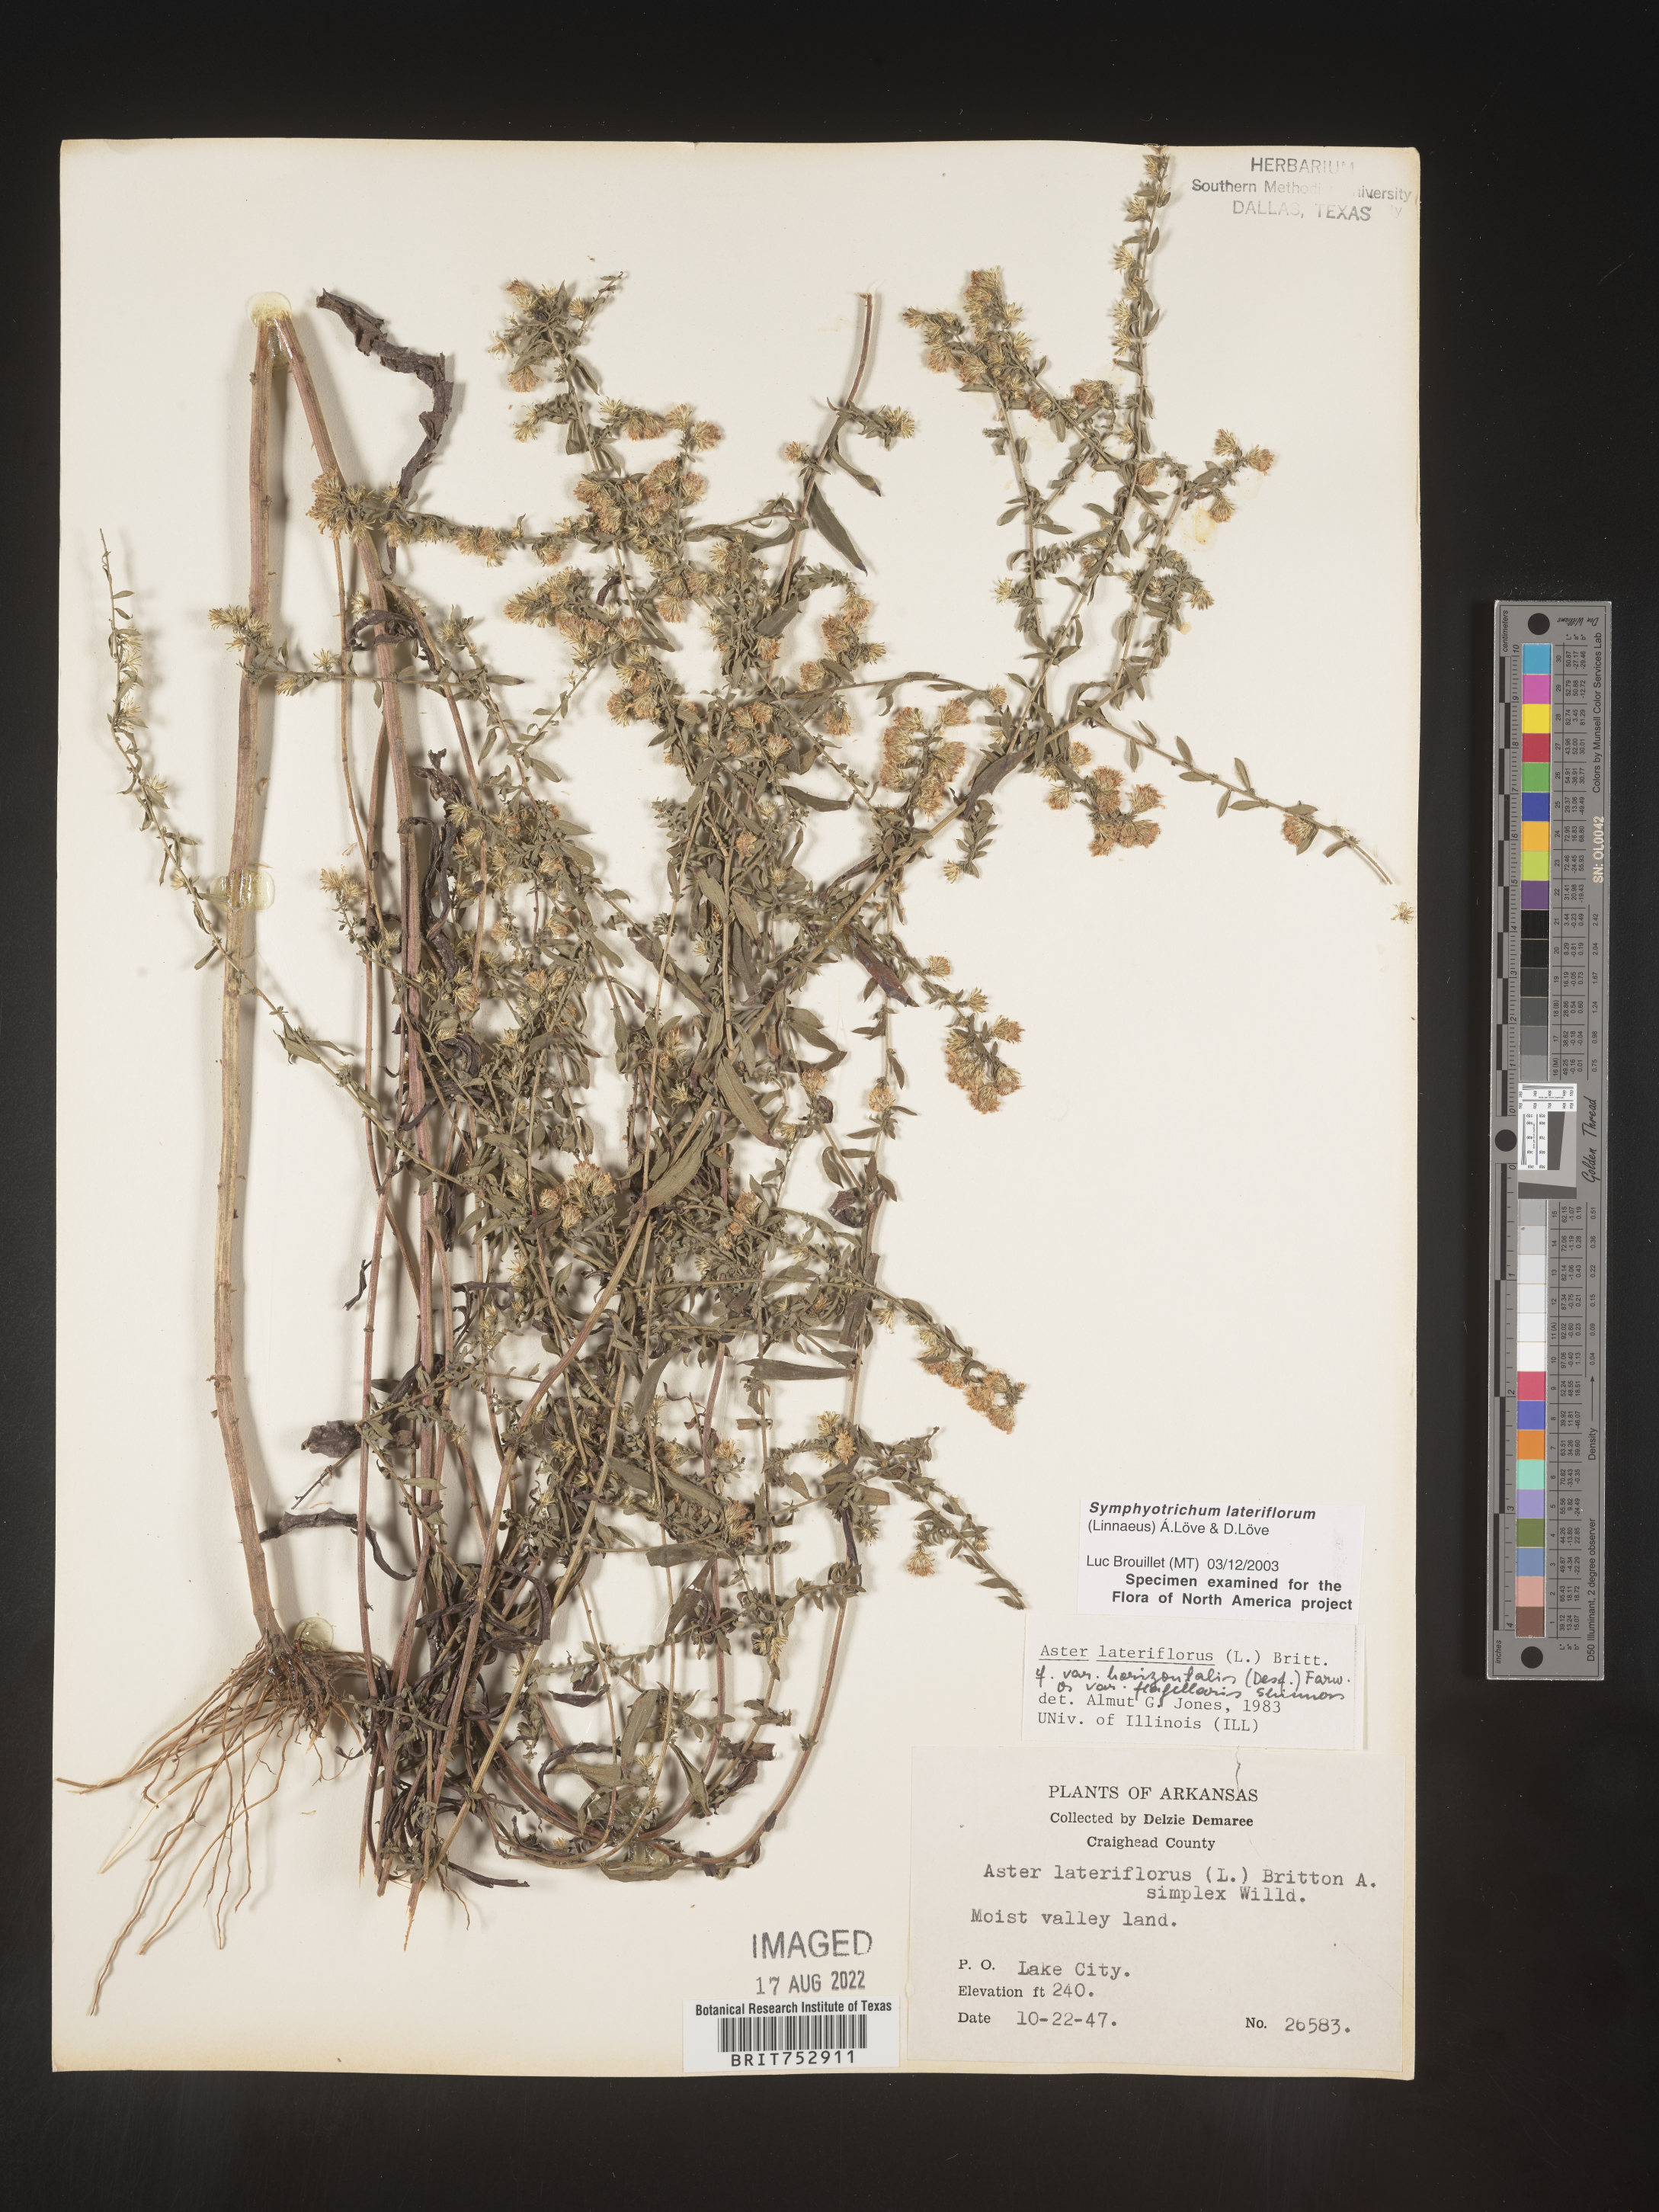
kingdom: Plantae
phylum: Tracheophyta
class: Magnoliopsida
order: Asterales
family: Asteraceae
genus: Symphyotrichum
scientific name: Symphyotrichum lateriflorum
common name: Calico aster
